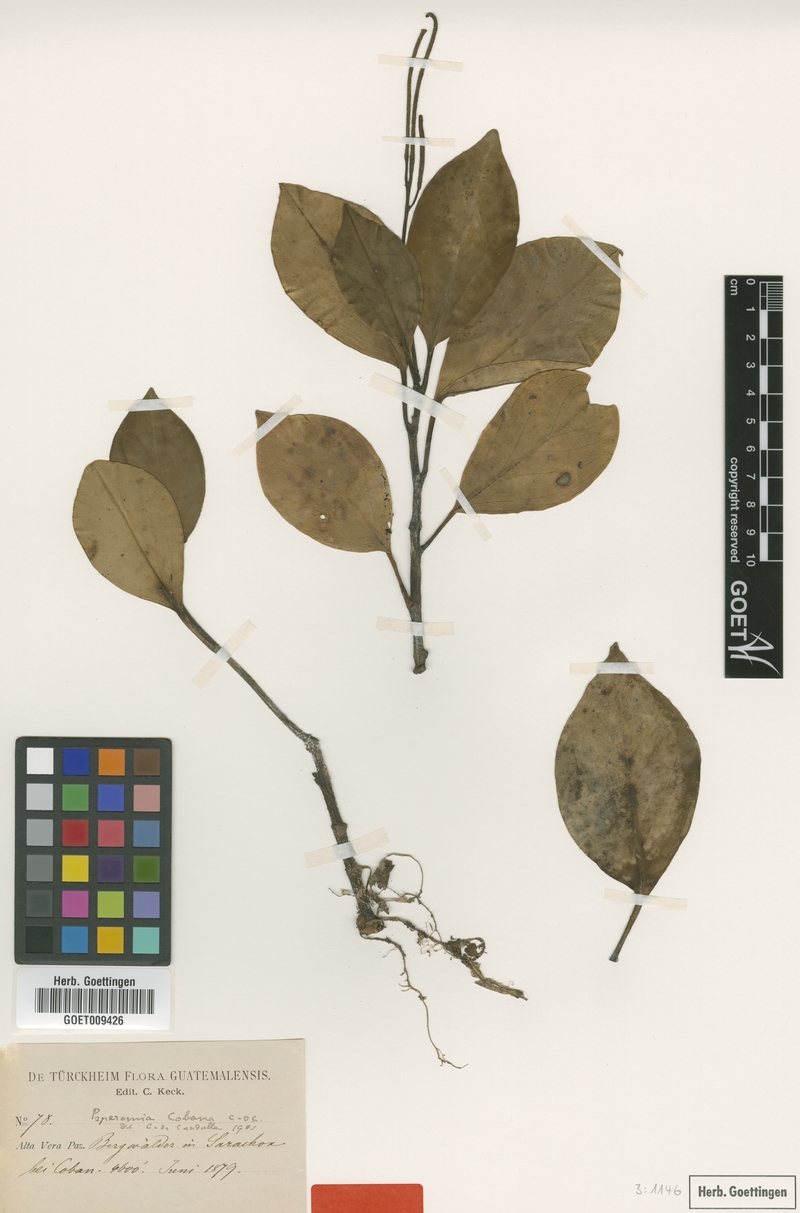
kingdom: Plantae
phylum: Tracheophyta
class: Magnoliopsida
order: Piperales
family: Piperaceae
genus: Peperomia
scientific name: Peperomia cobana
